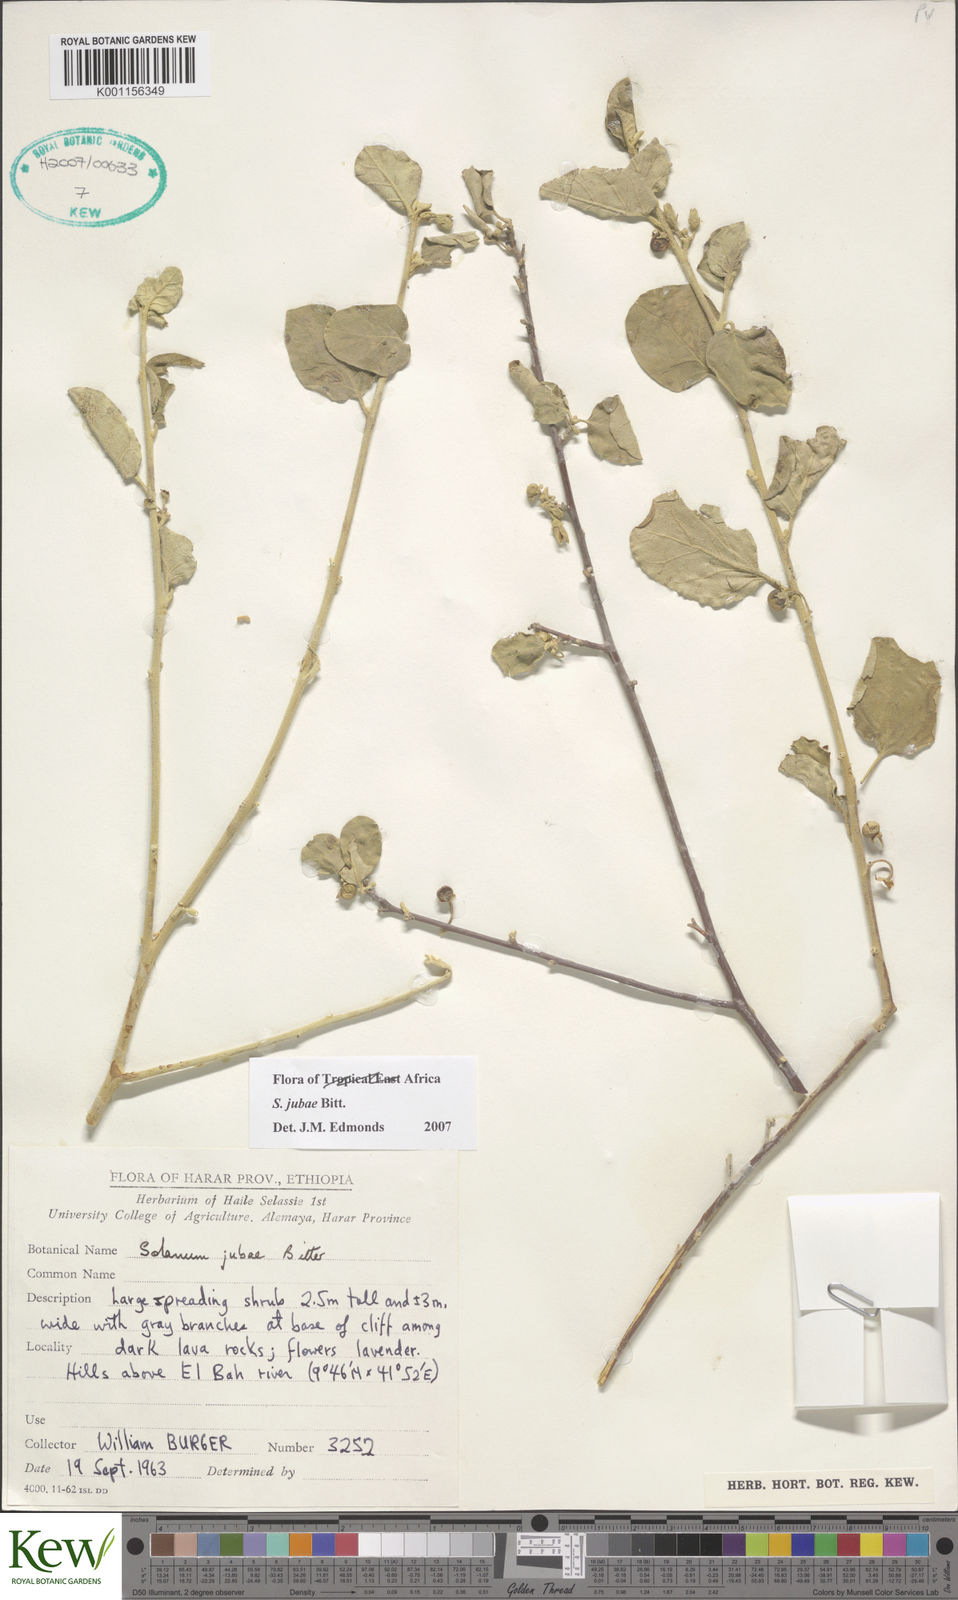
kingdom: Plantae
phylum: Tracheophyta
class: Magnoliopsida
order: Solanales
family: Solanaceae
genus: Solanum
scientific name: Solanum jubae
